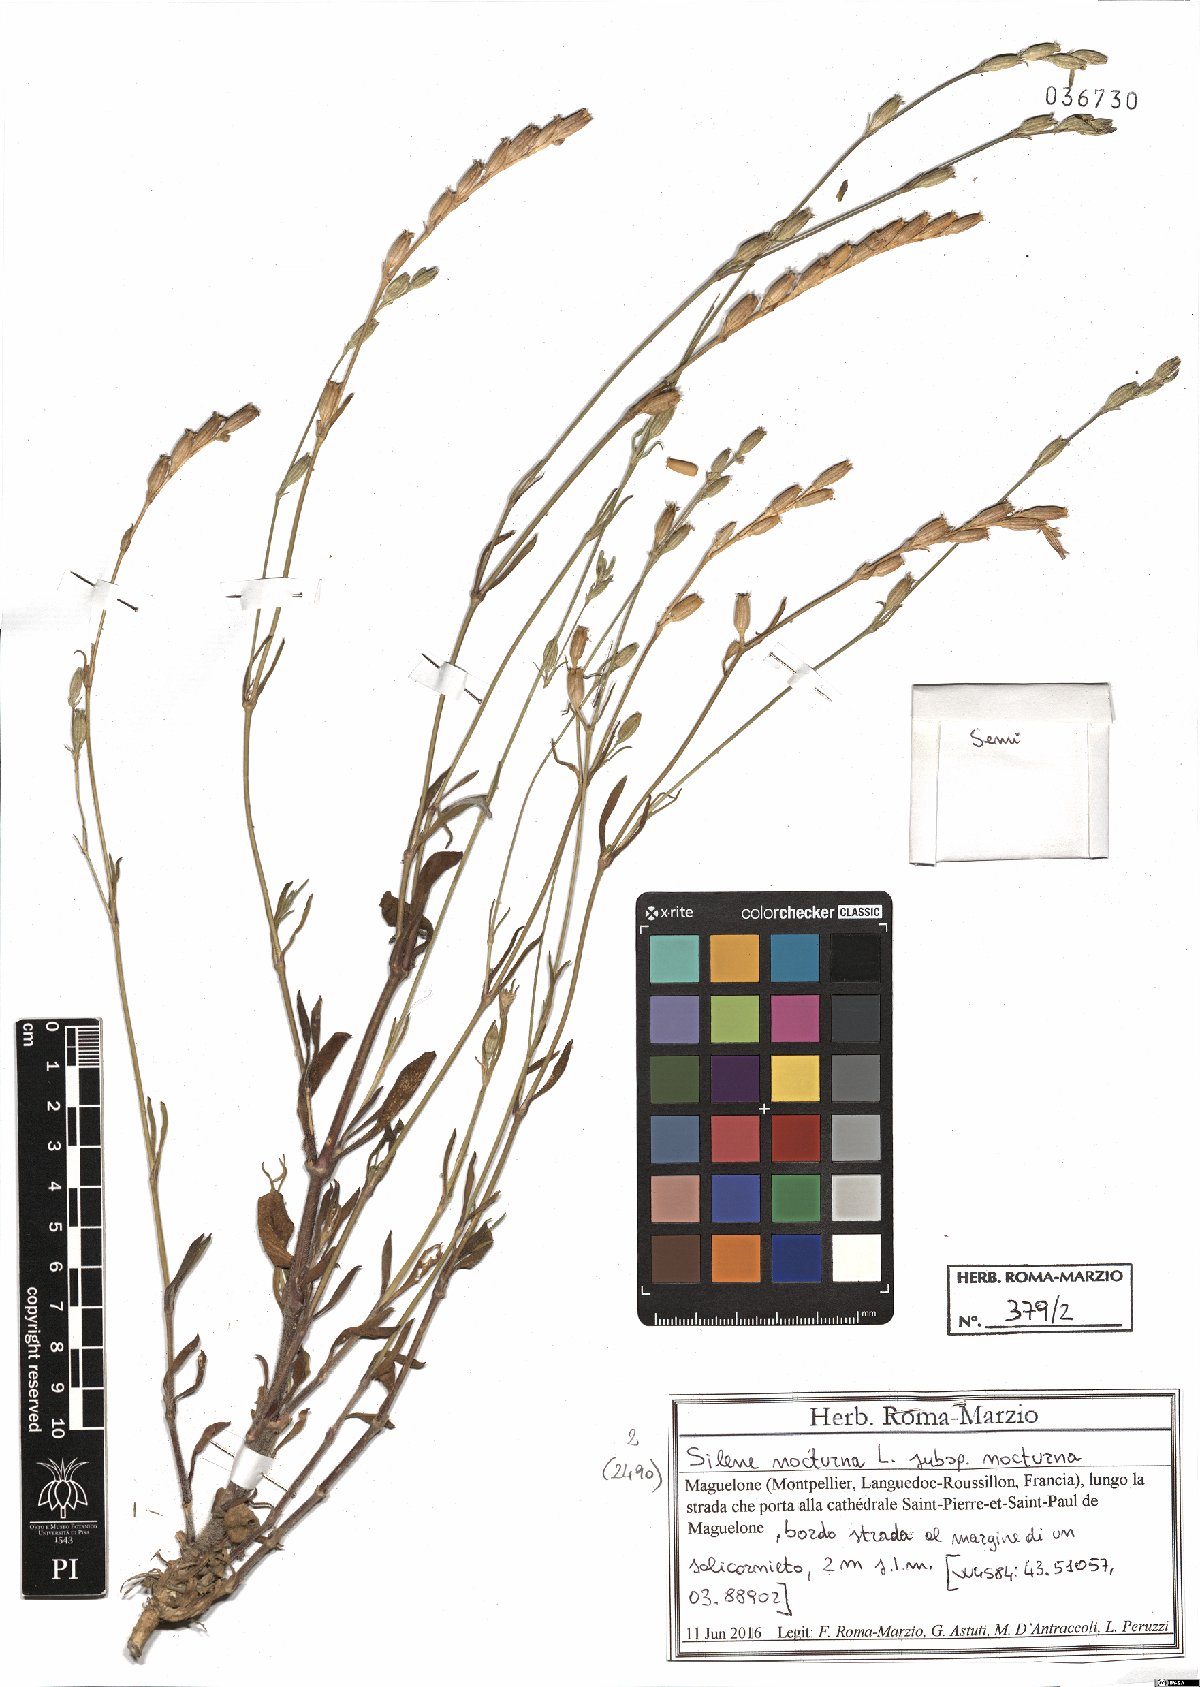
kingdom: Plantae
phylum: Tracheophyta
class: Magnoliopsida
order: Caryophyllales
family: Caryophyllaceae
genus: Silene
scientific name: Silene nocturna
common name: Mediterranean catchfly
